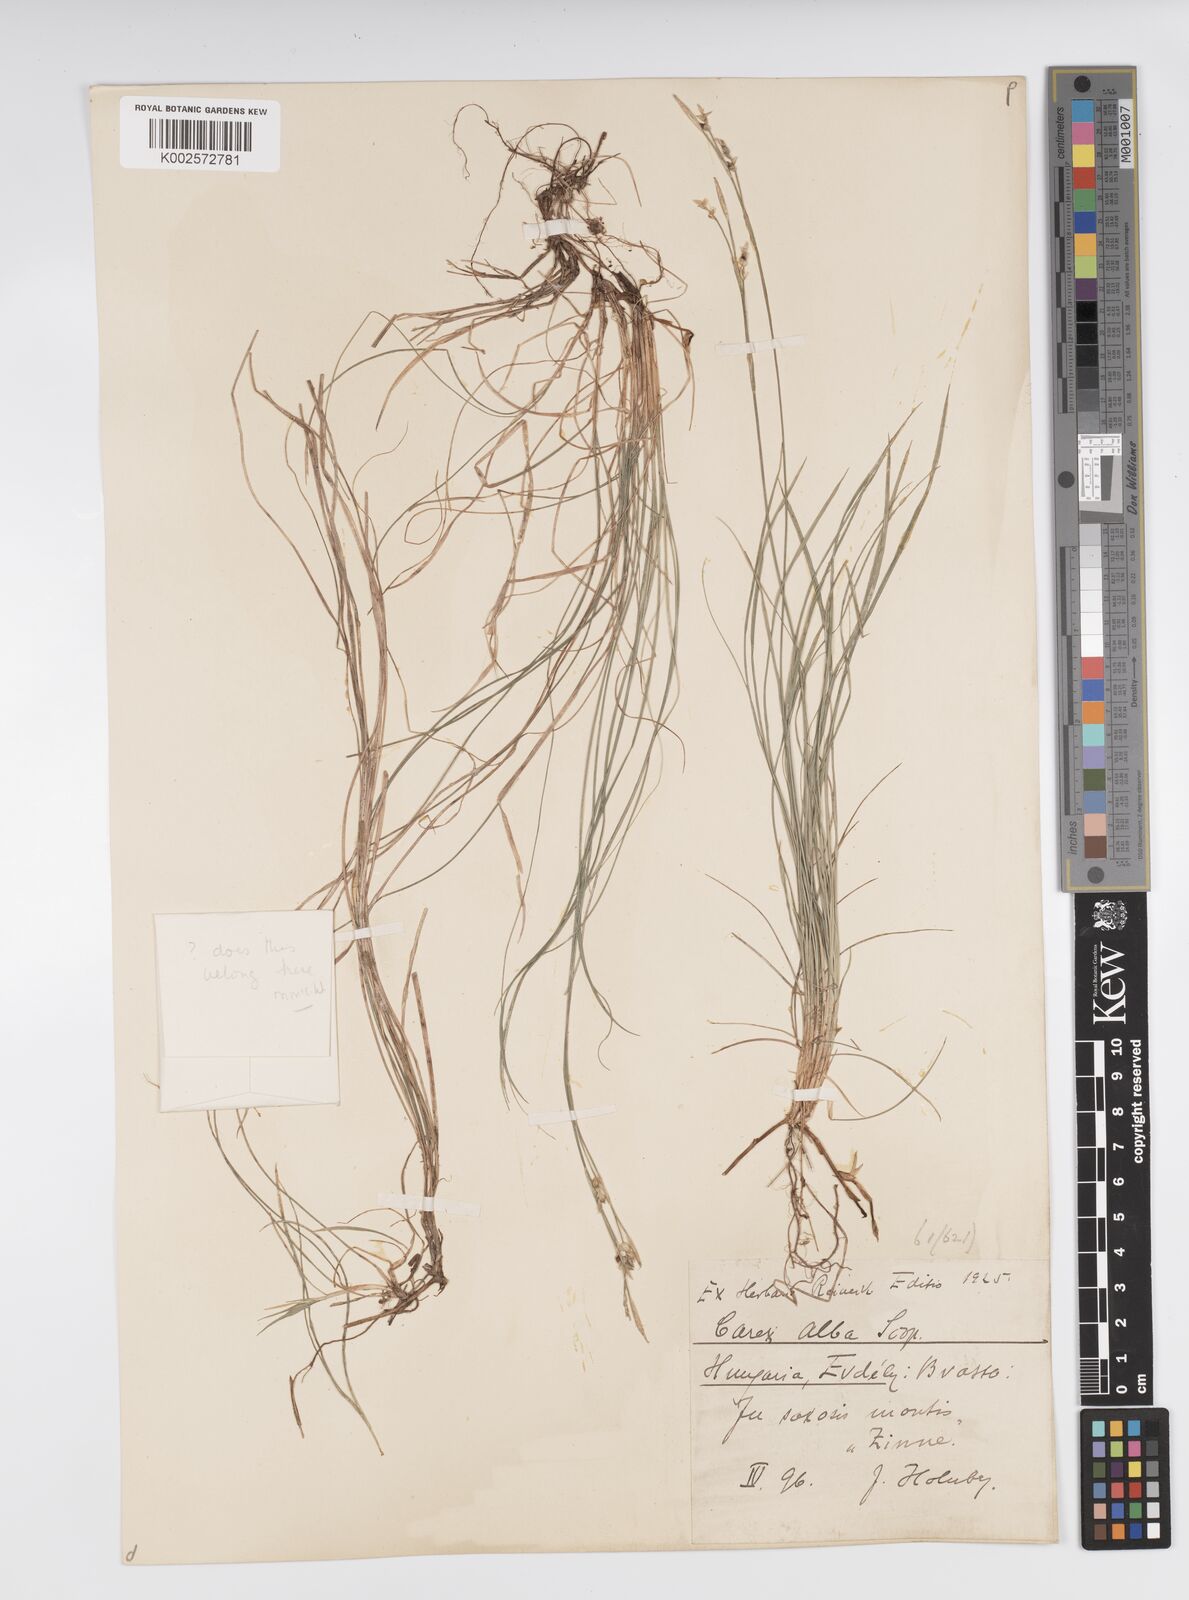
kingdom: Plantae
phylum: Tracheophyta
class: Liliopsida
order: Poales
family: Cyperaceae
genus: Carex
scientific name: Carex alba
